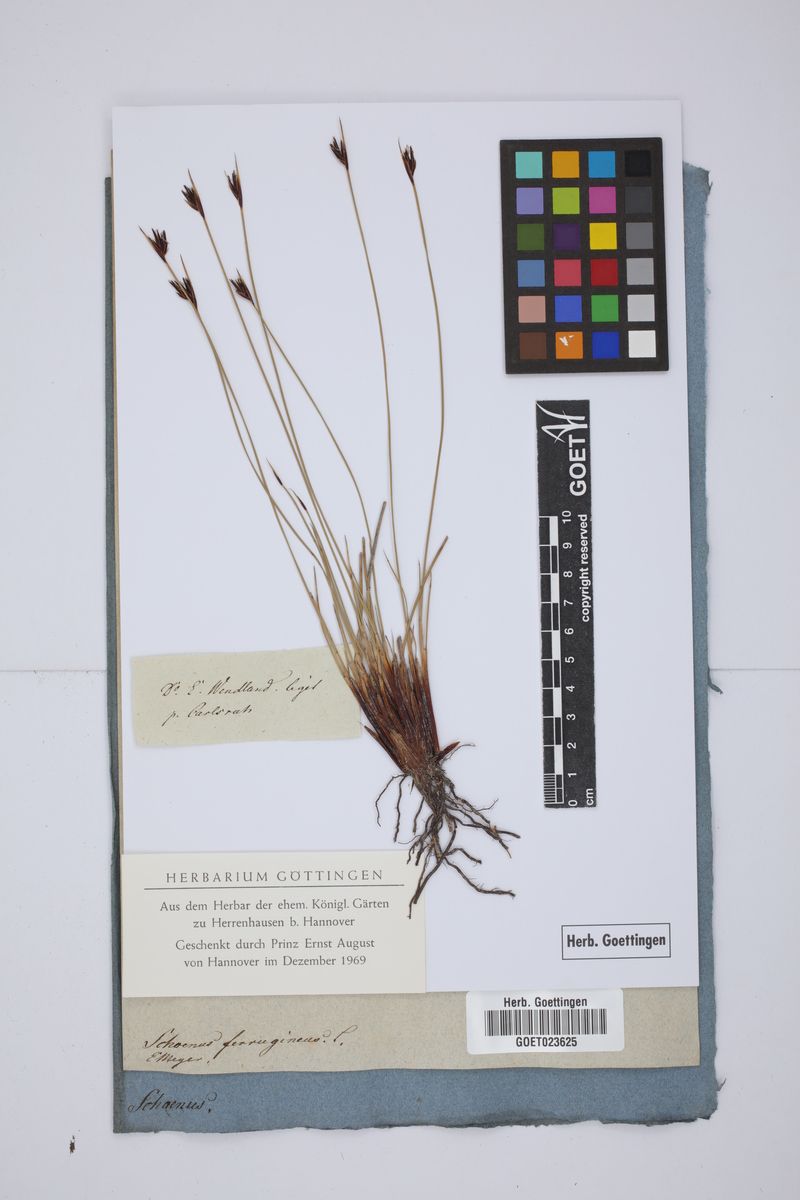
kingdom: Plantae
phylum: Tracheophyta
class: Liliopsida
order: Poales
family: Cyperaceae
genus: Schoenus
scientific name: Schoenus ferrugineus
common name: Brown bog-rush
